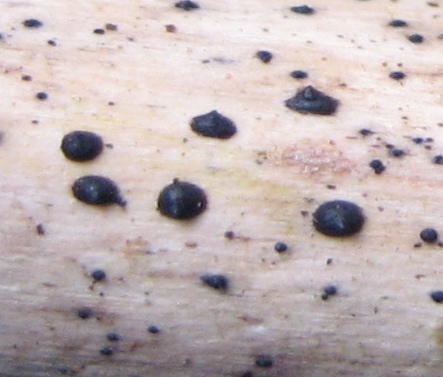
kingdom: Fungi
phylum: Ascomycota
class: Dothideomycetes
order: Pleosporales
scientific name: Pleosporales
